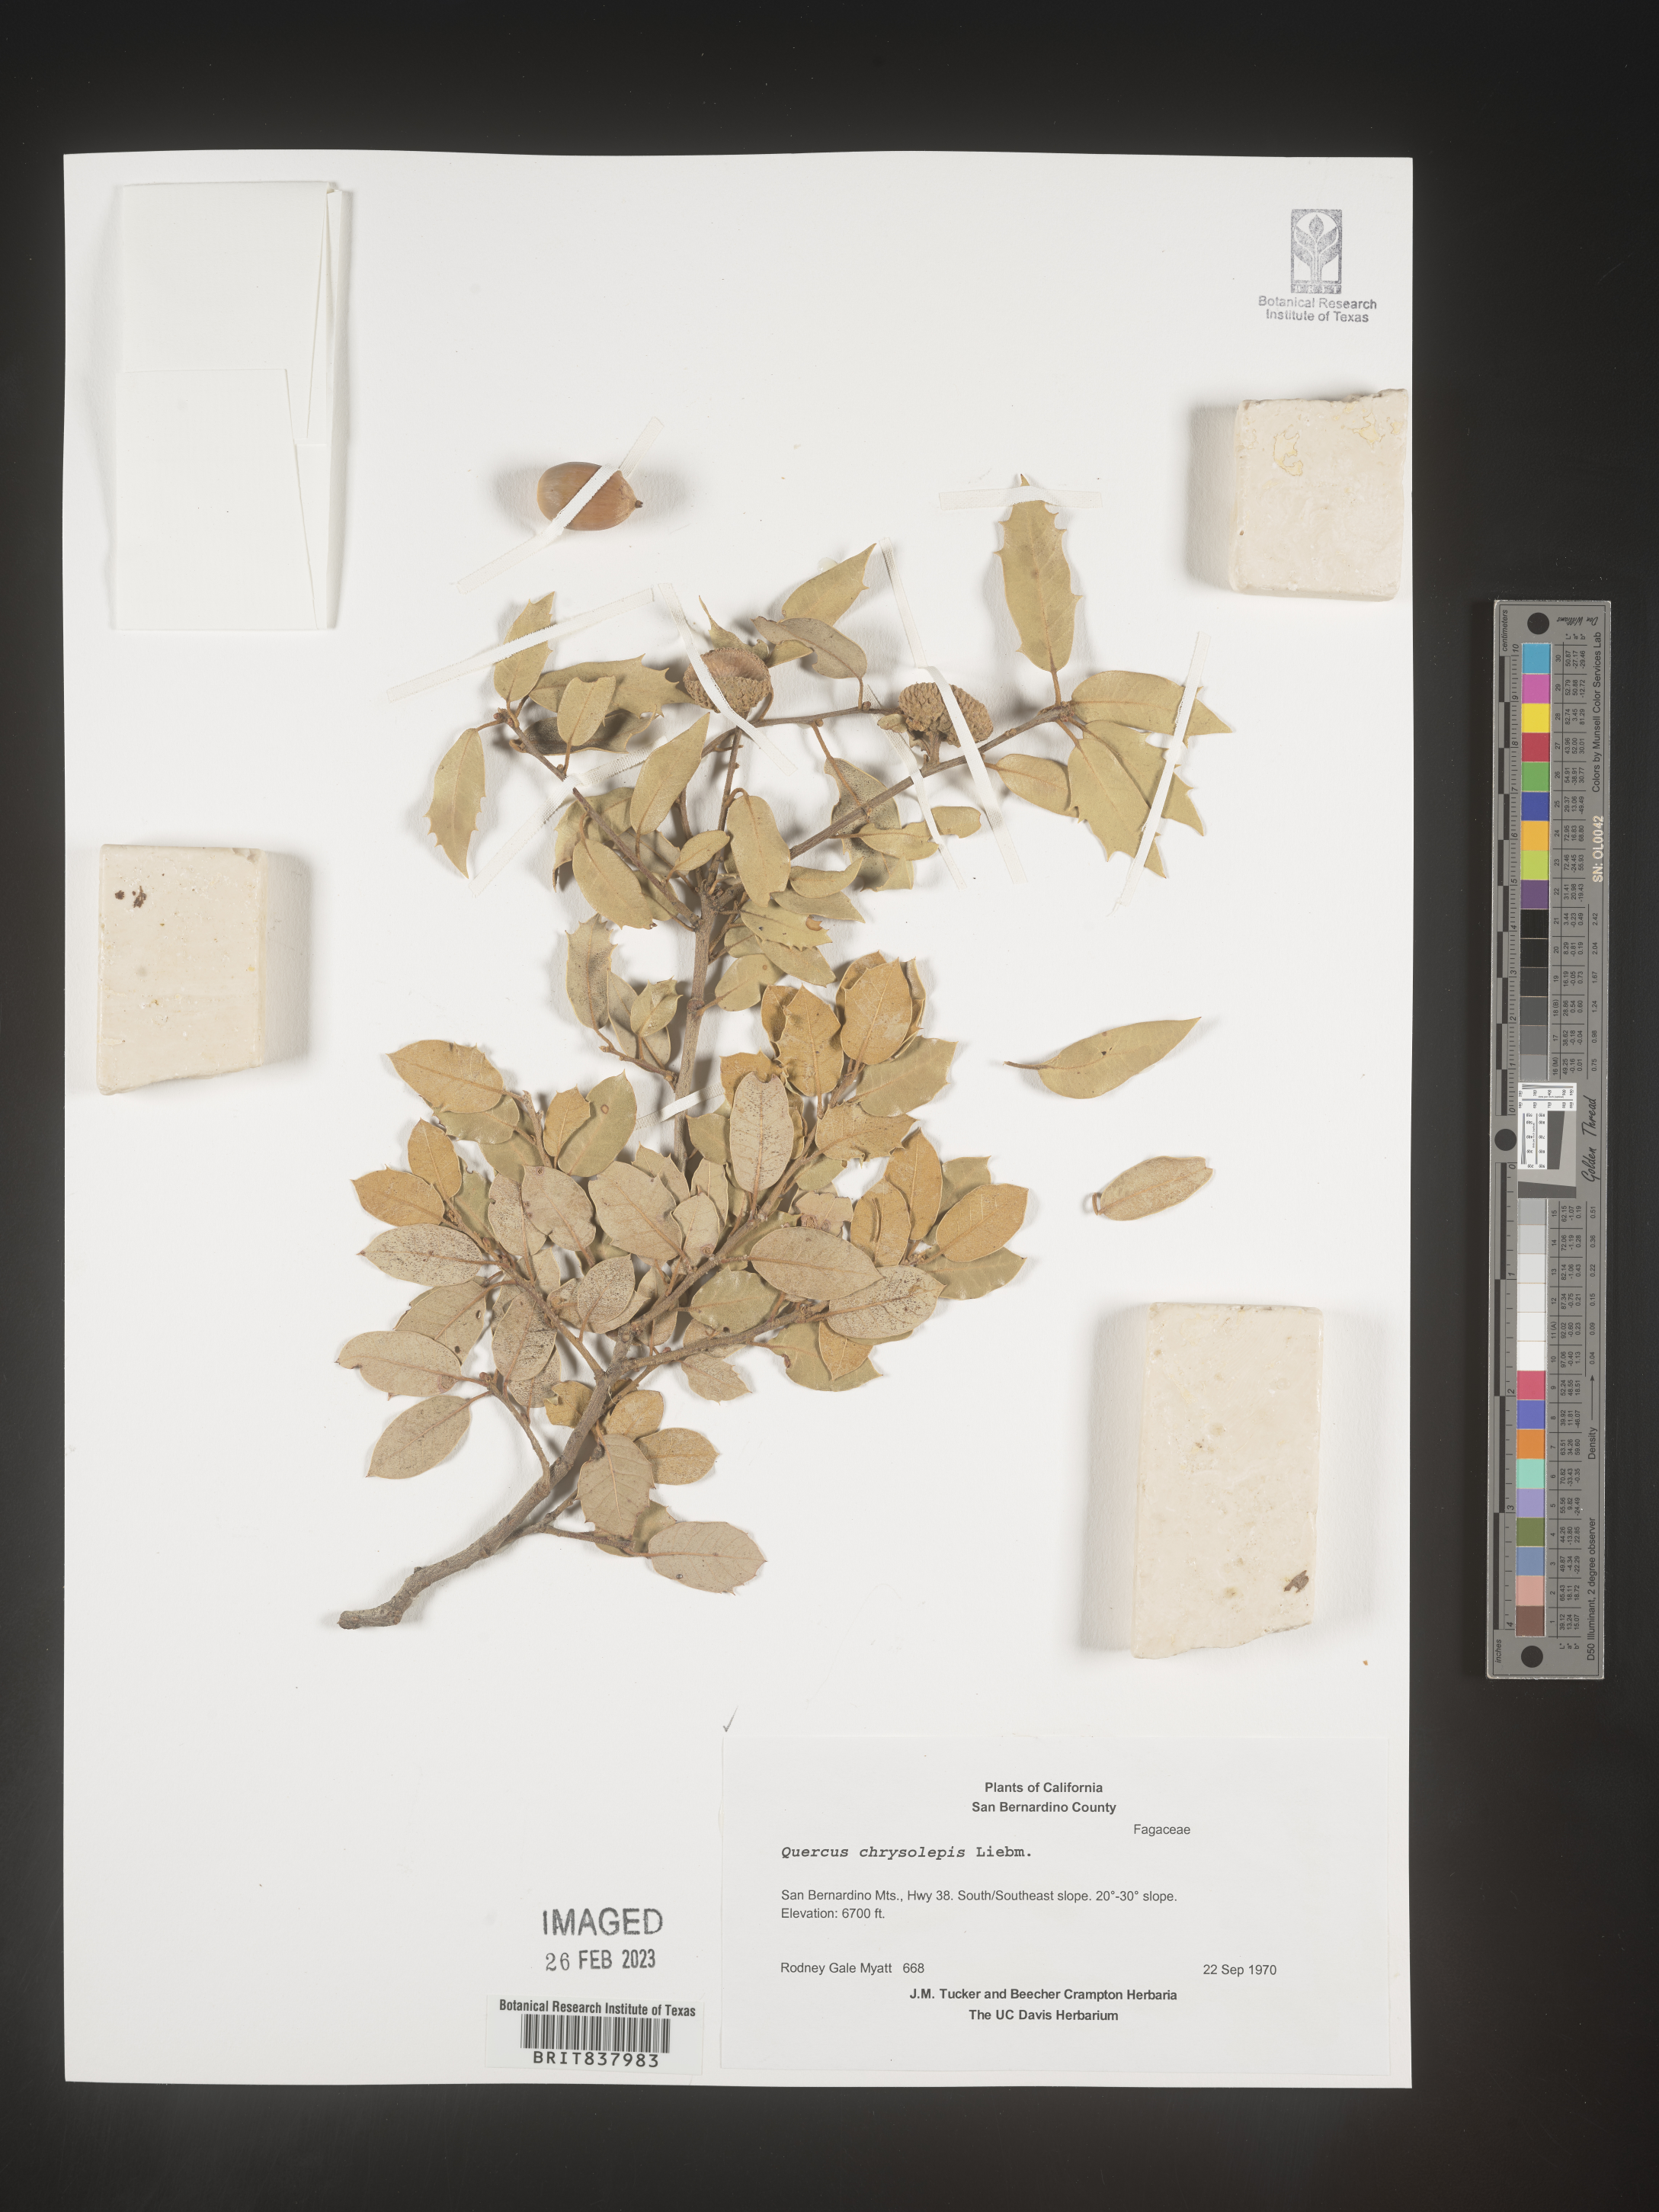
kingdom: Plantae
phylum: Tracheophyta
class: Magnoliopsida
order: Fagales
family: Fagaceae
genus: Quercus
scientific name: Quercus chrysolepis
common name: Canyon live oak
